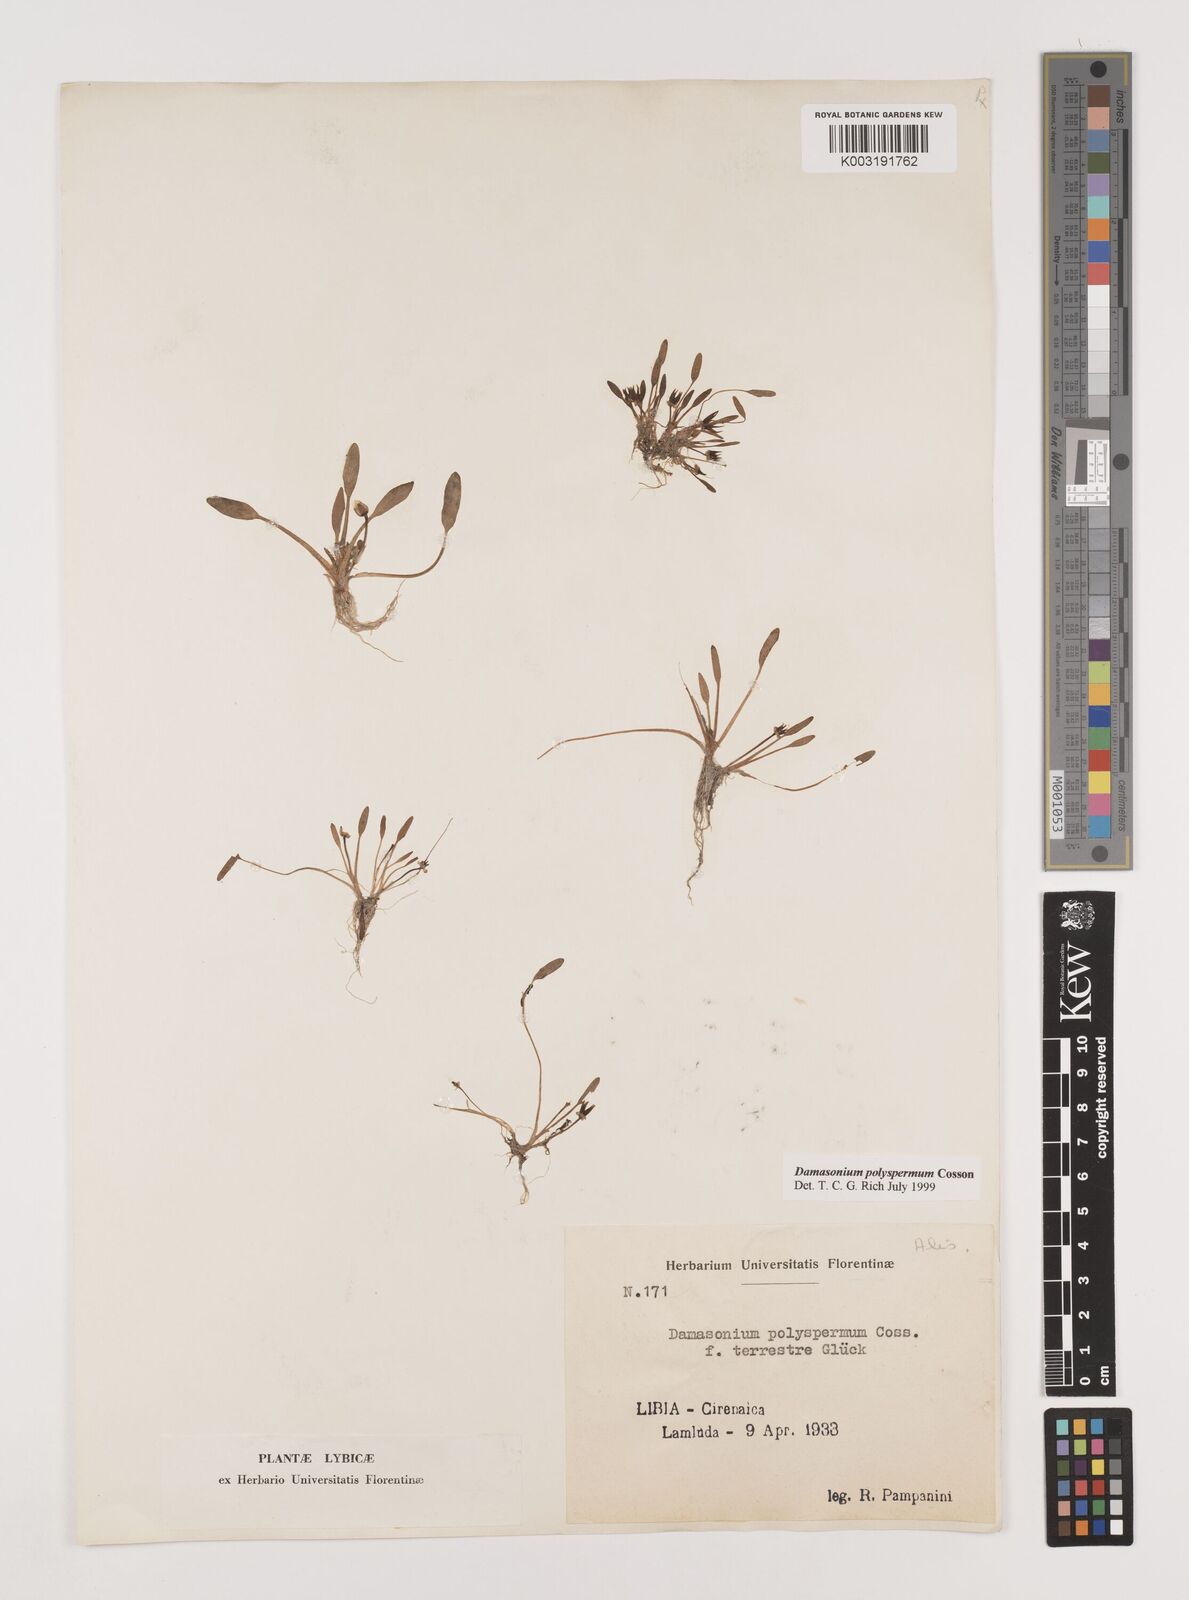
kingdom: Plantae
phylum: Tracheophyta
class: Liliopsida
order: Alismatales
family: Alismataceae
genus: Damasonium
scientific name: Damasonium polyspermum
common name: Starfruit
